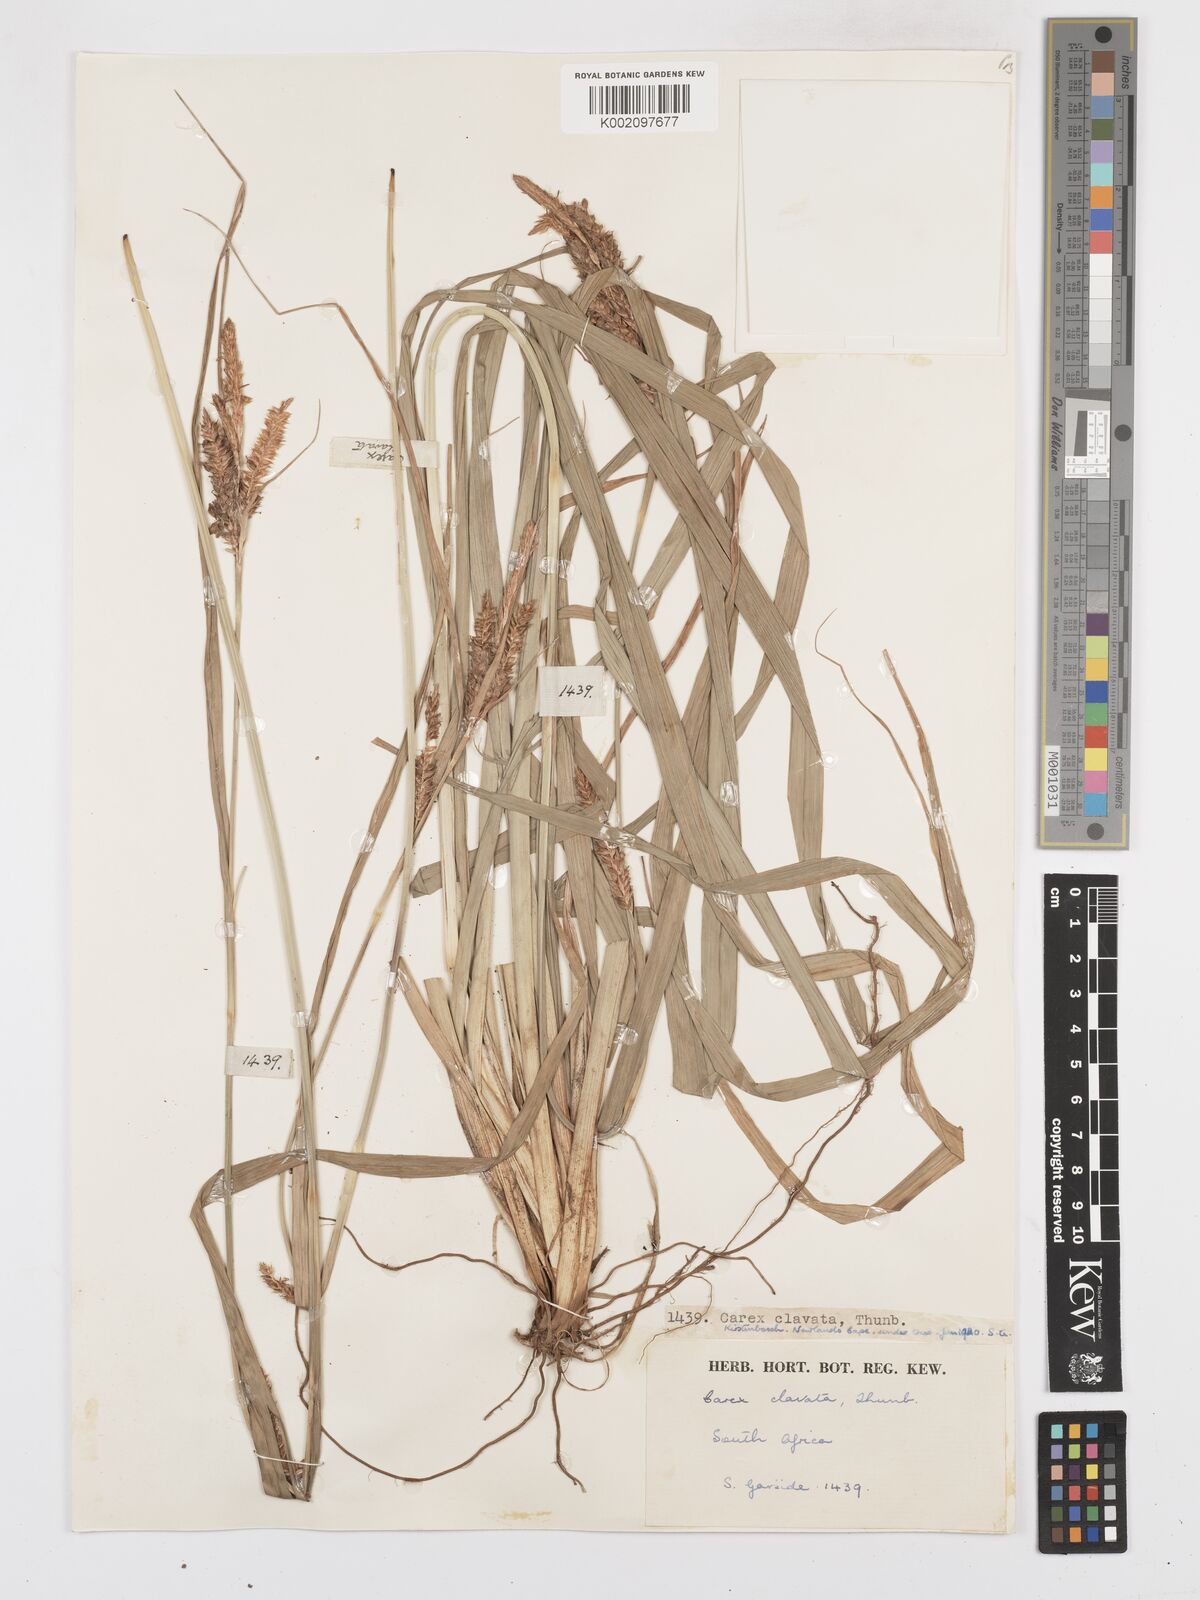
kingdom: Plantae
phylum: Tracheophyta
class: Liliopsida
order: Poales
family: Cyperaceae
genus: Carex
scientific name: Carex clavata
